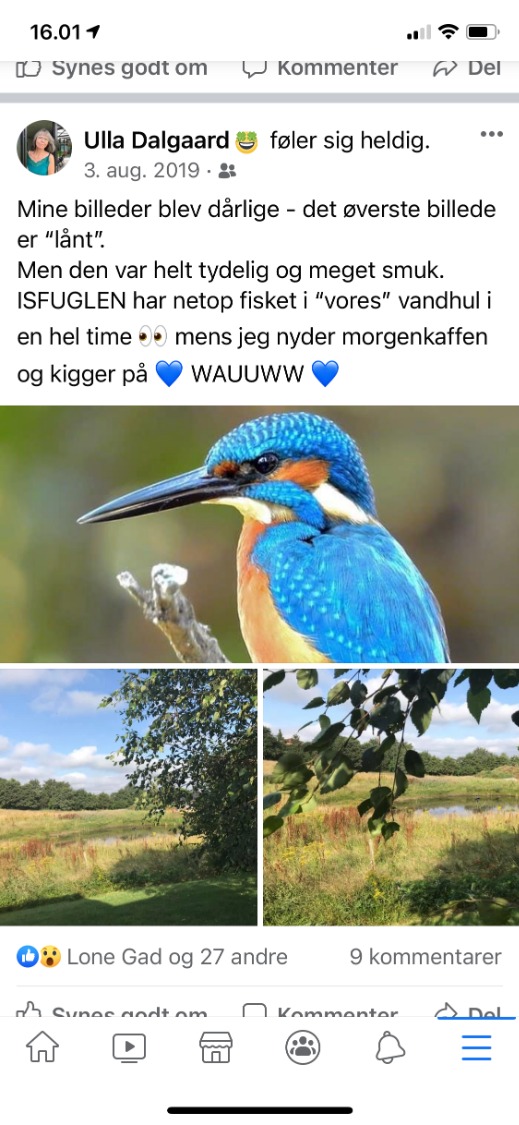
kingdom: Animalia
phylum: Chordata
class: Aves
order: Coraciiformes
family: Alcedinidae
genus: Alcedo
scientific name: Alcedo atthis
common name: Isfugl
